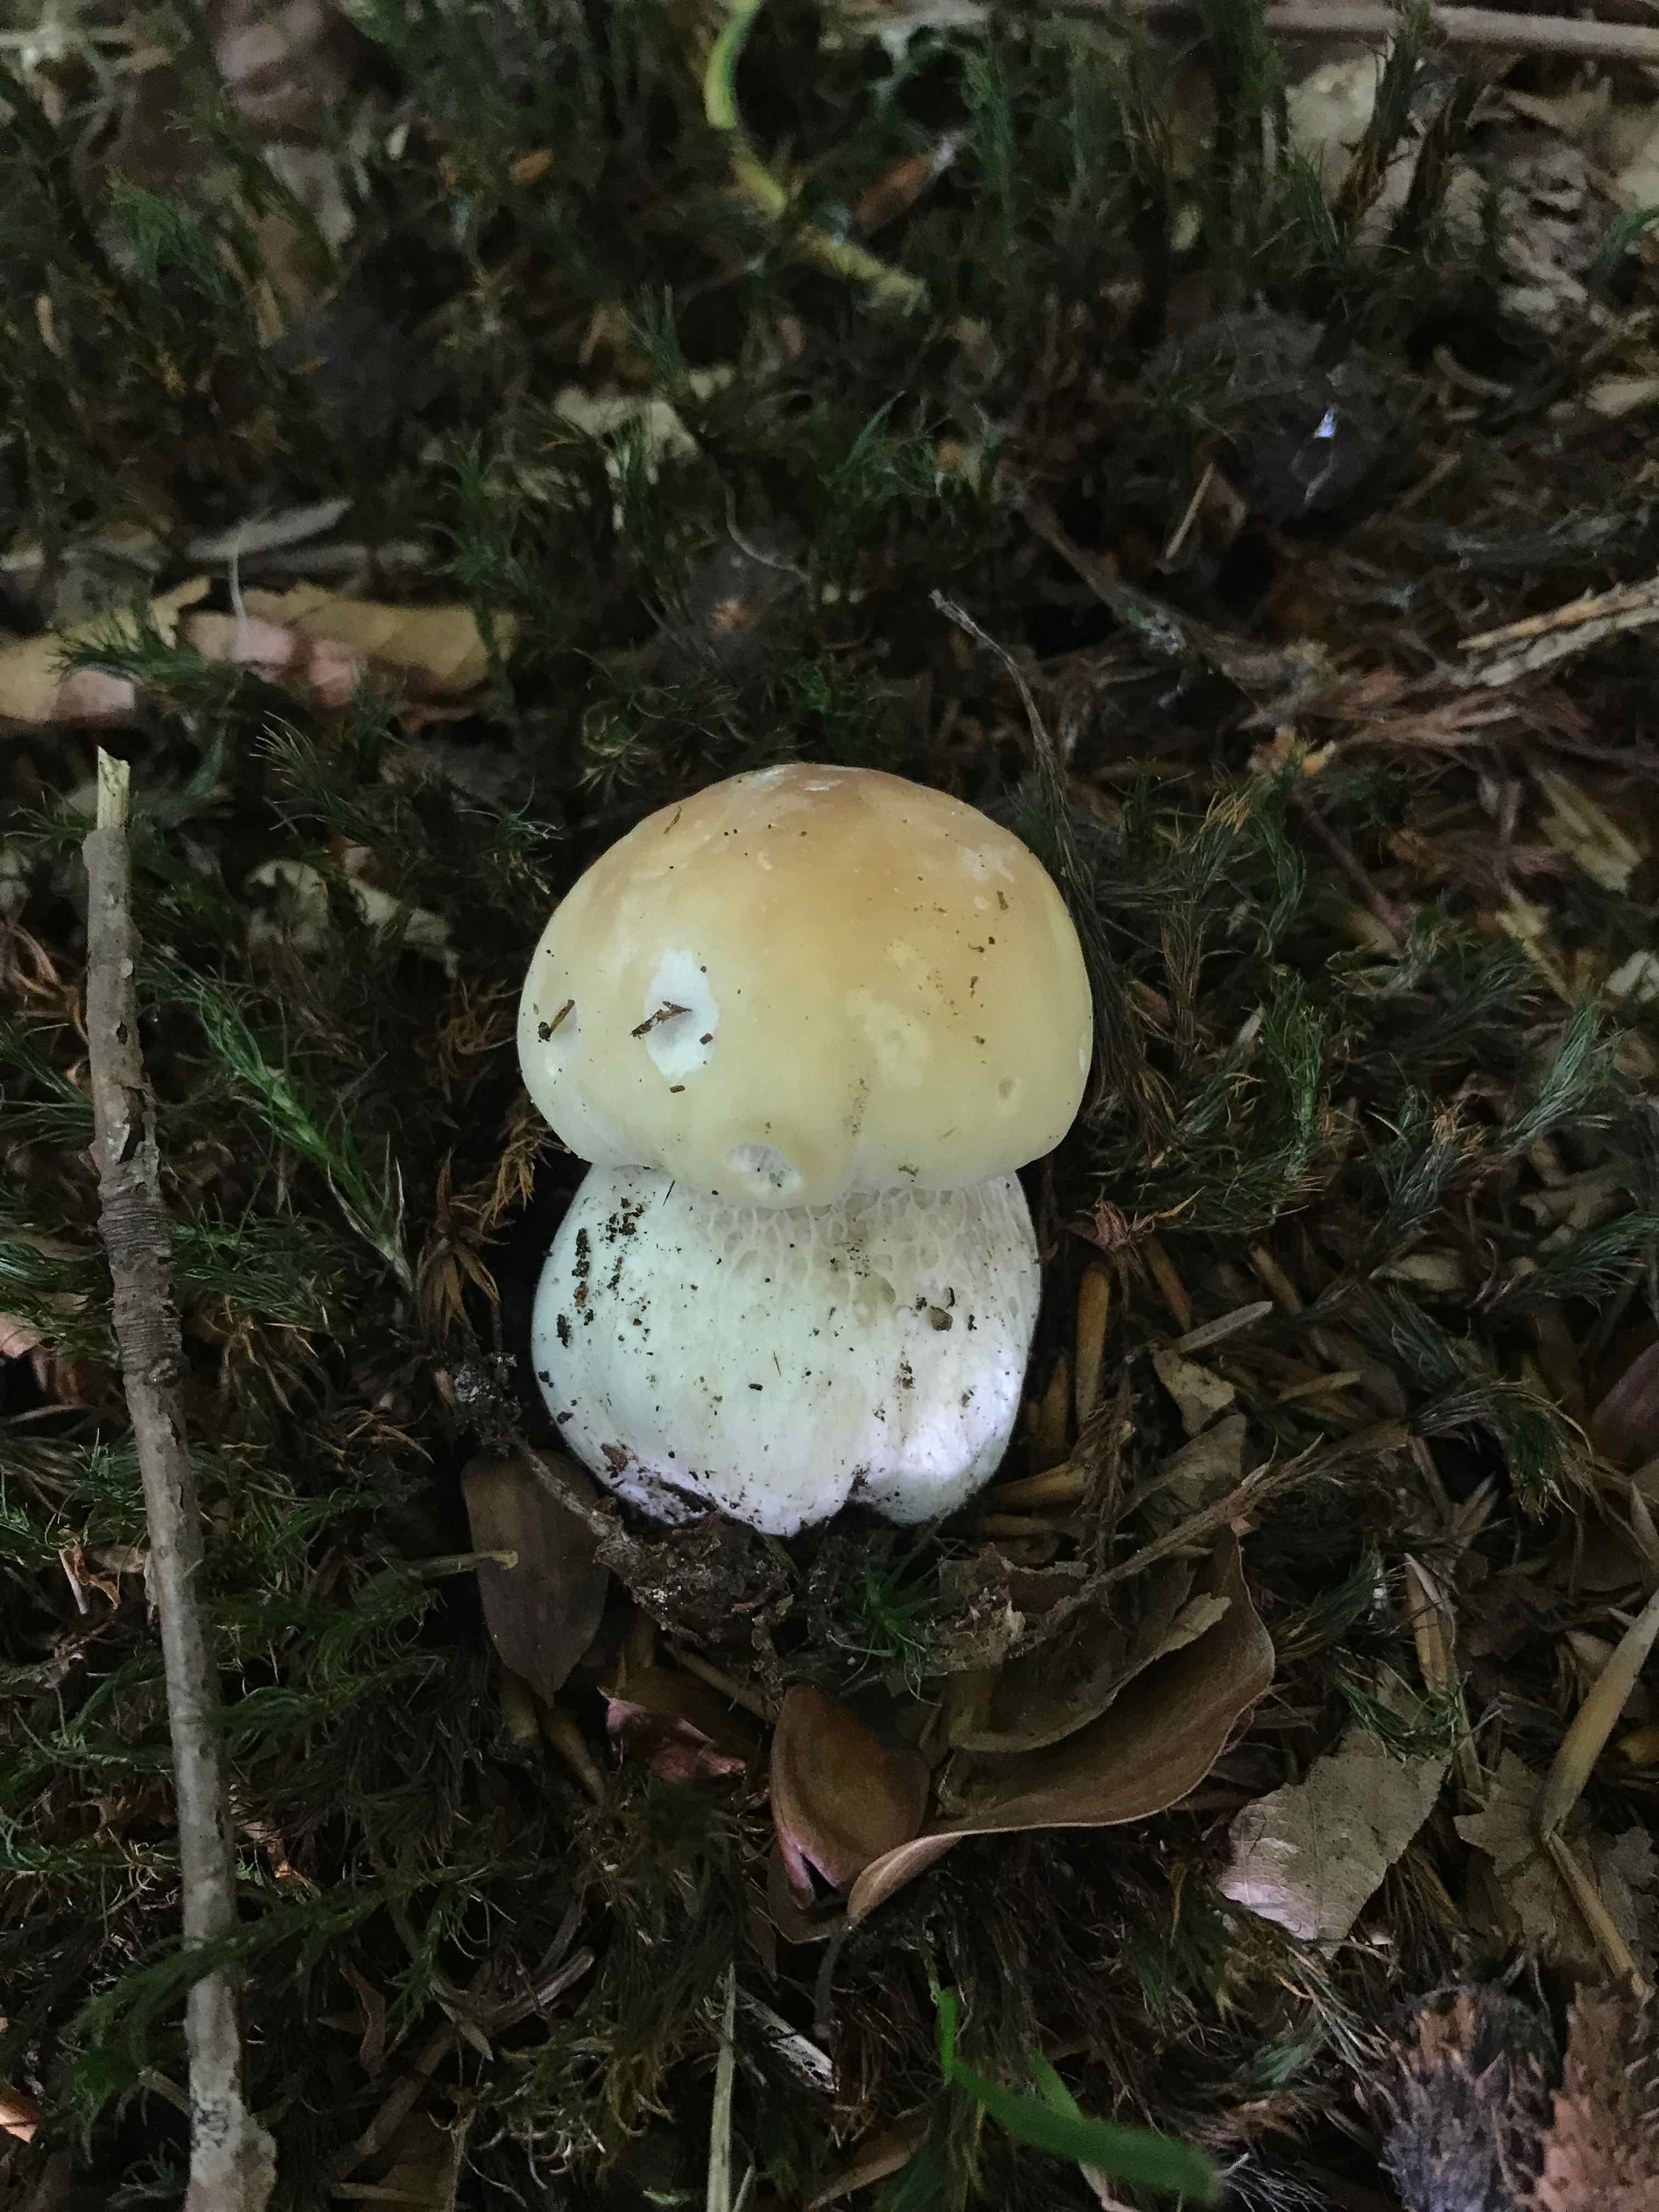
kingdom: Fungi
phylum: Basidiomycota
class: Agaricomycetes
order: Boletales
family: Boletaceae
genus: Boletus
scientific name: Boletus edulis
